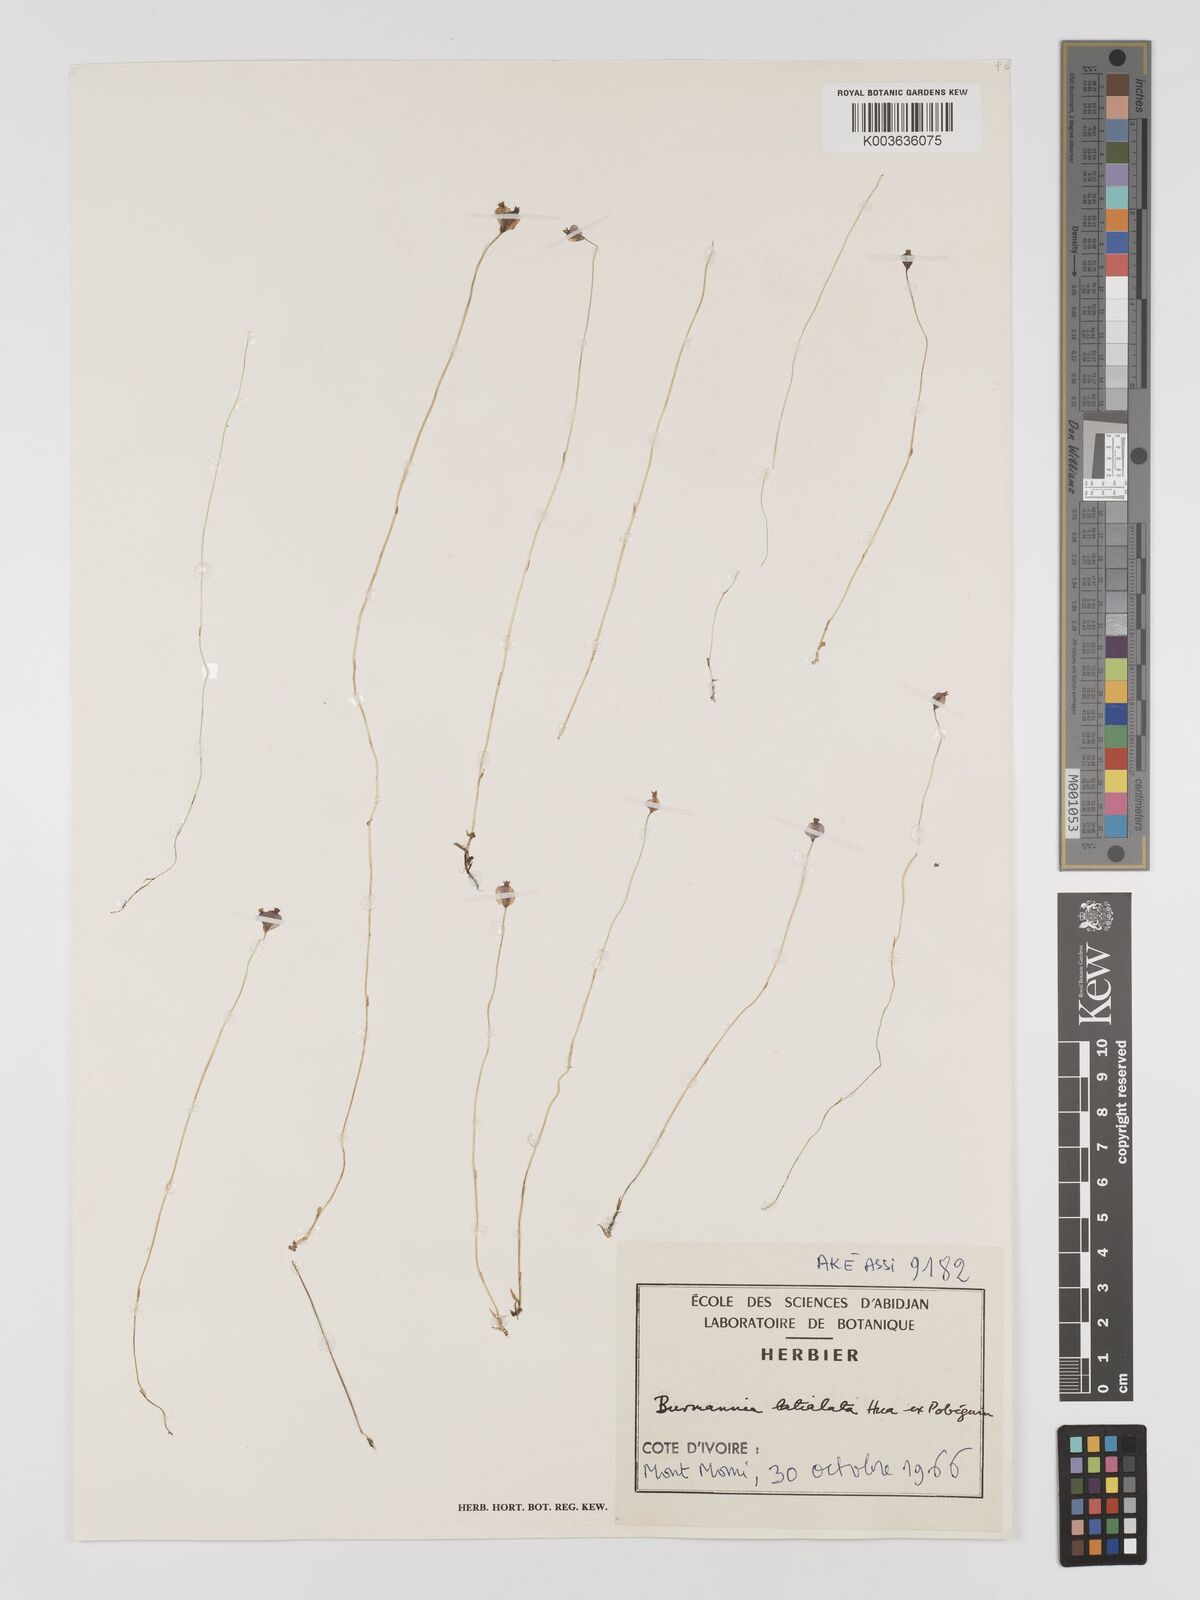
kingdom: Plantae
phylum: Tracheophyta
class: Liliopsida
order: Dioscoreales
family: Burmanniaceae
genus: Burmannia
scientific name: Burmannia madagascariensis
